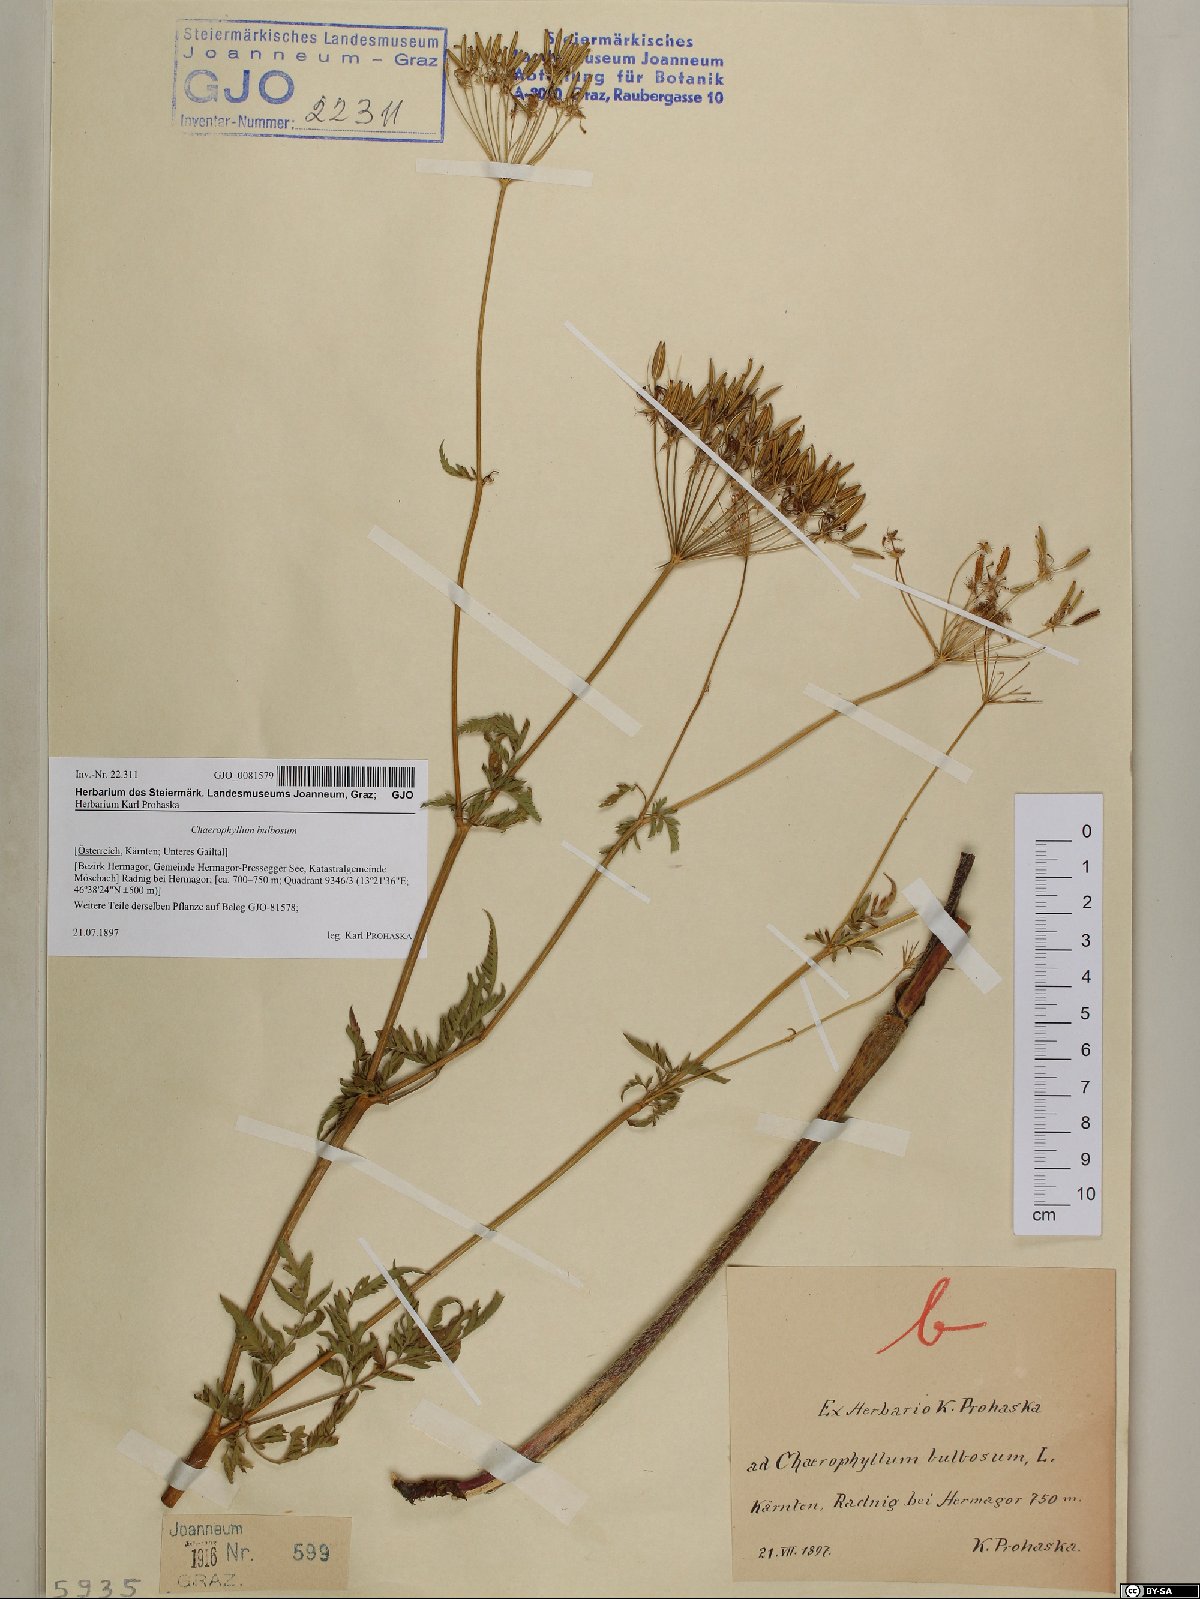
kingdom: Plantae
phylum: Tracheophyta
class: Magnoliopsida
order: Apiales
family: Apiaceae
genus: Chaerophyllum
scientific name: Chaerophyllum bulbosum
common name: Bulbous chervil
